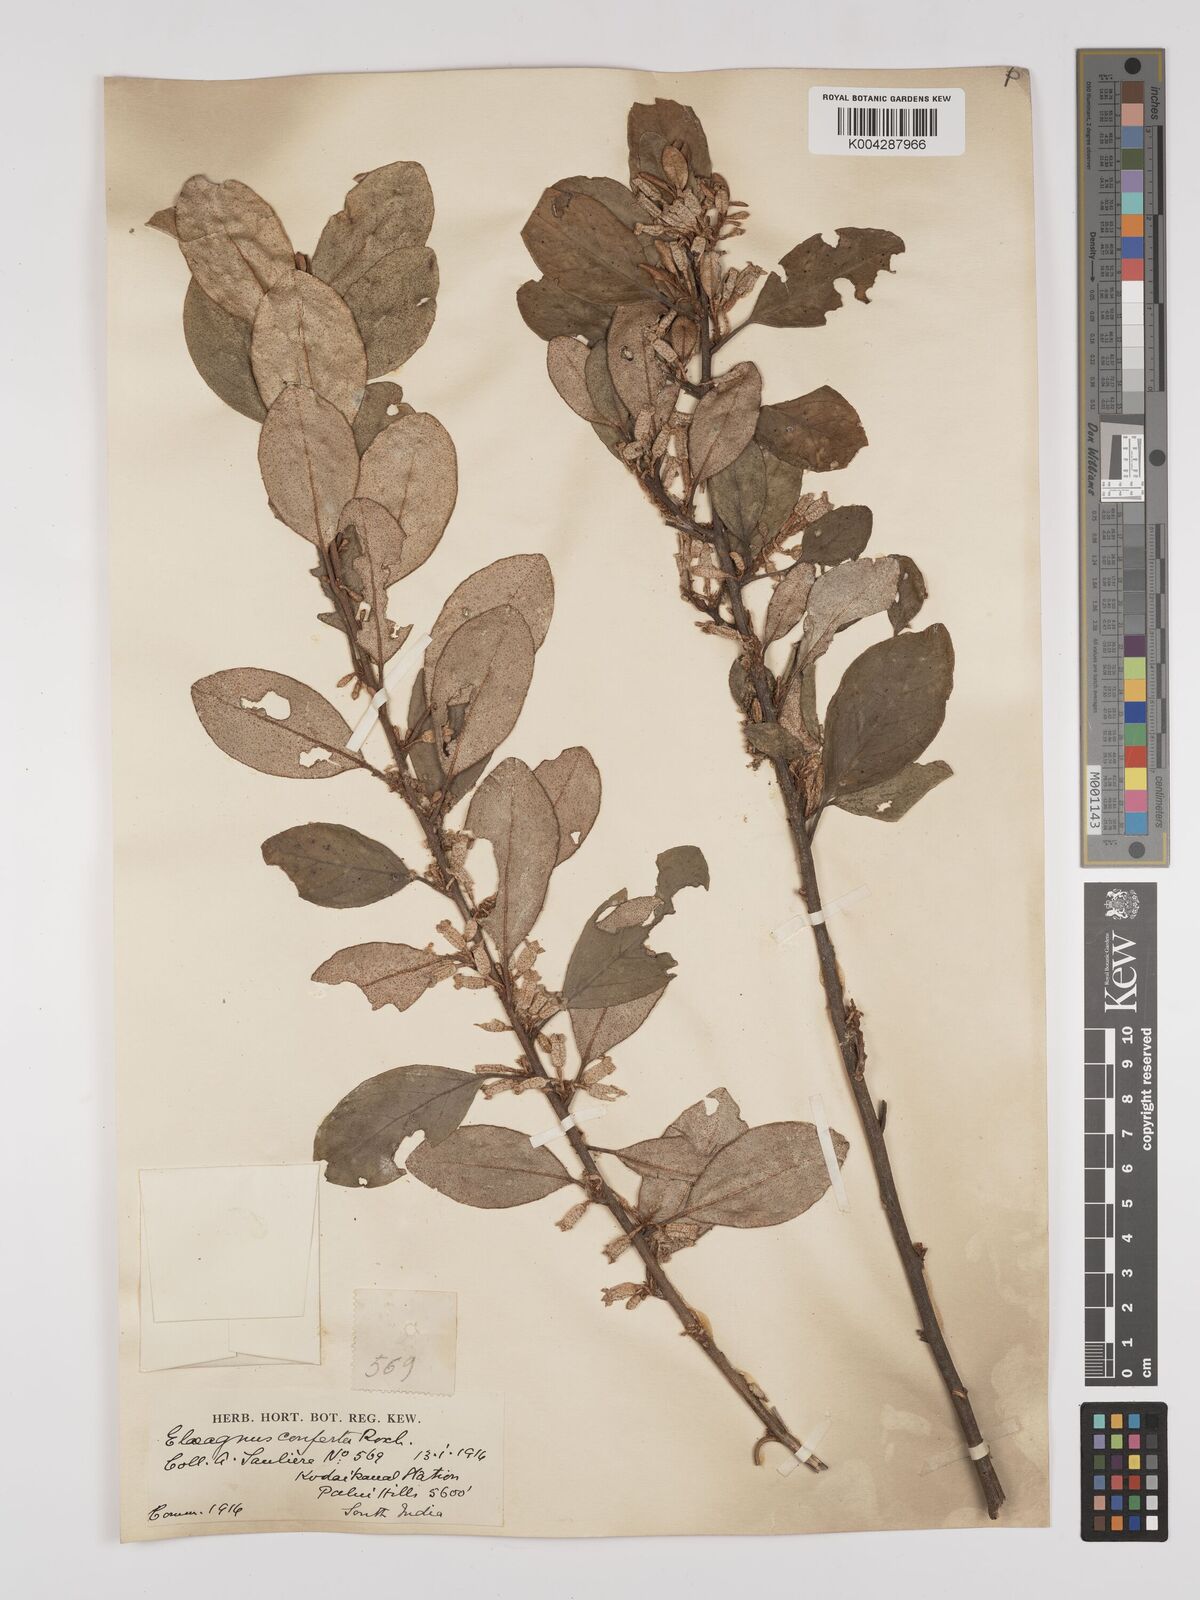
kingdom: Plantae
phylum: Tracheophyta
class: Magnoliopsida
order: Rosales
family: Elaeagnaceae
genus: Elaeagnus
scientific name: Elaeagnus conferta
